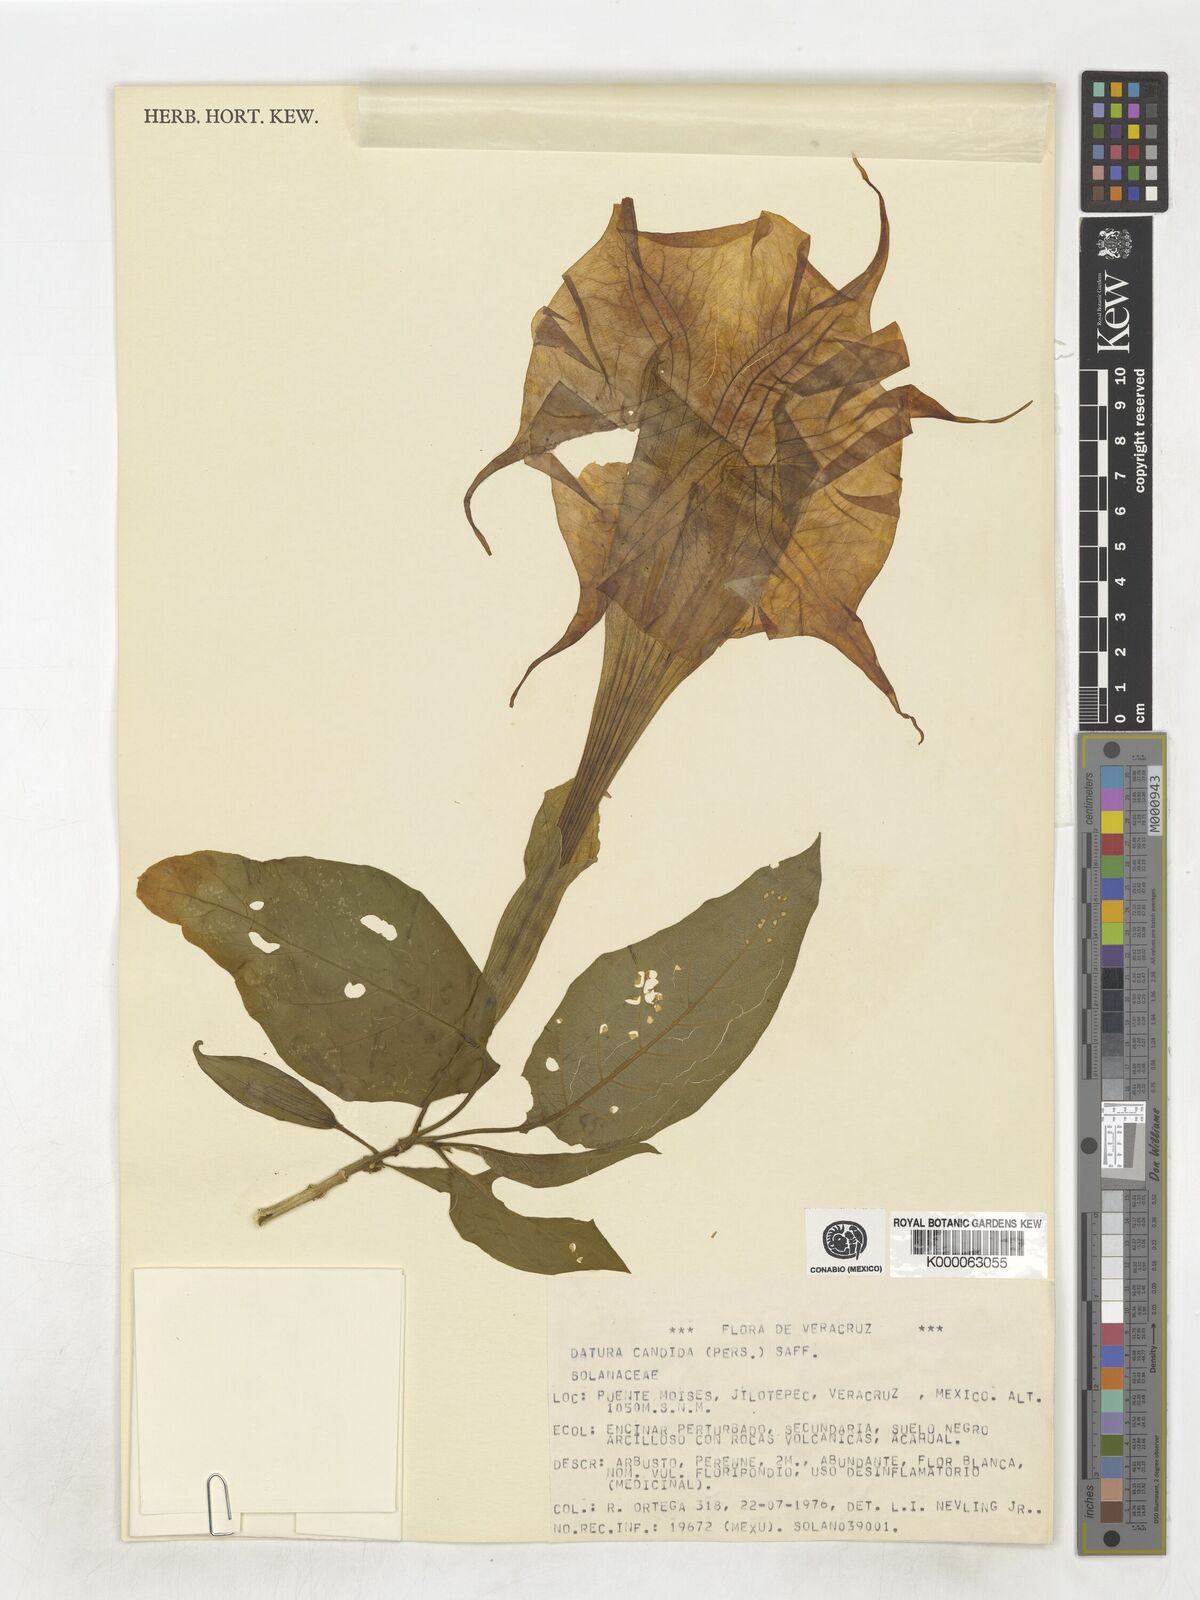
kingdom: Plantae
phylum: Tracheophyta
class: Magnoliopsida
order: Solanales
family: Solanaceae
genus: Datura
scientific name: Datura candida
